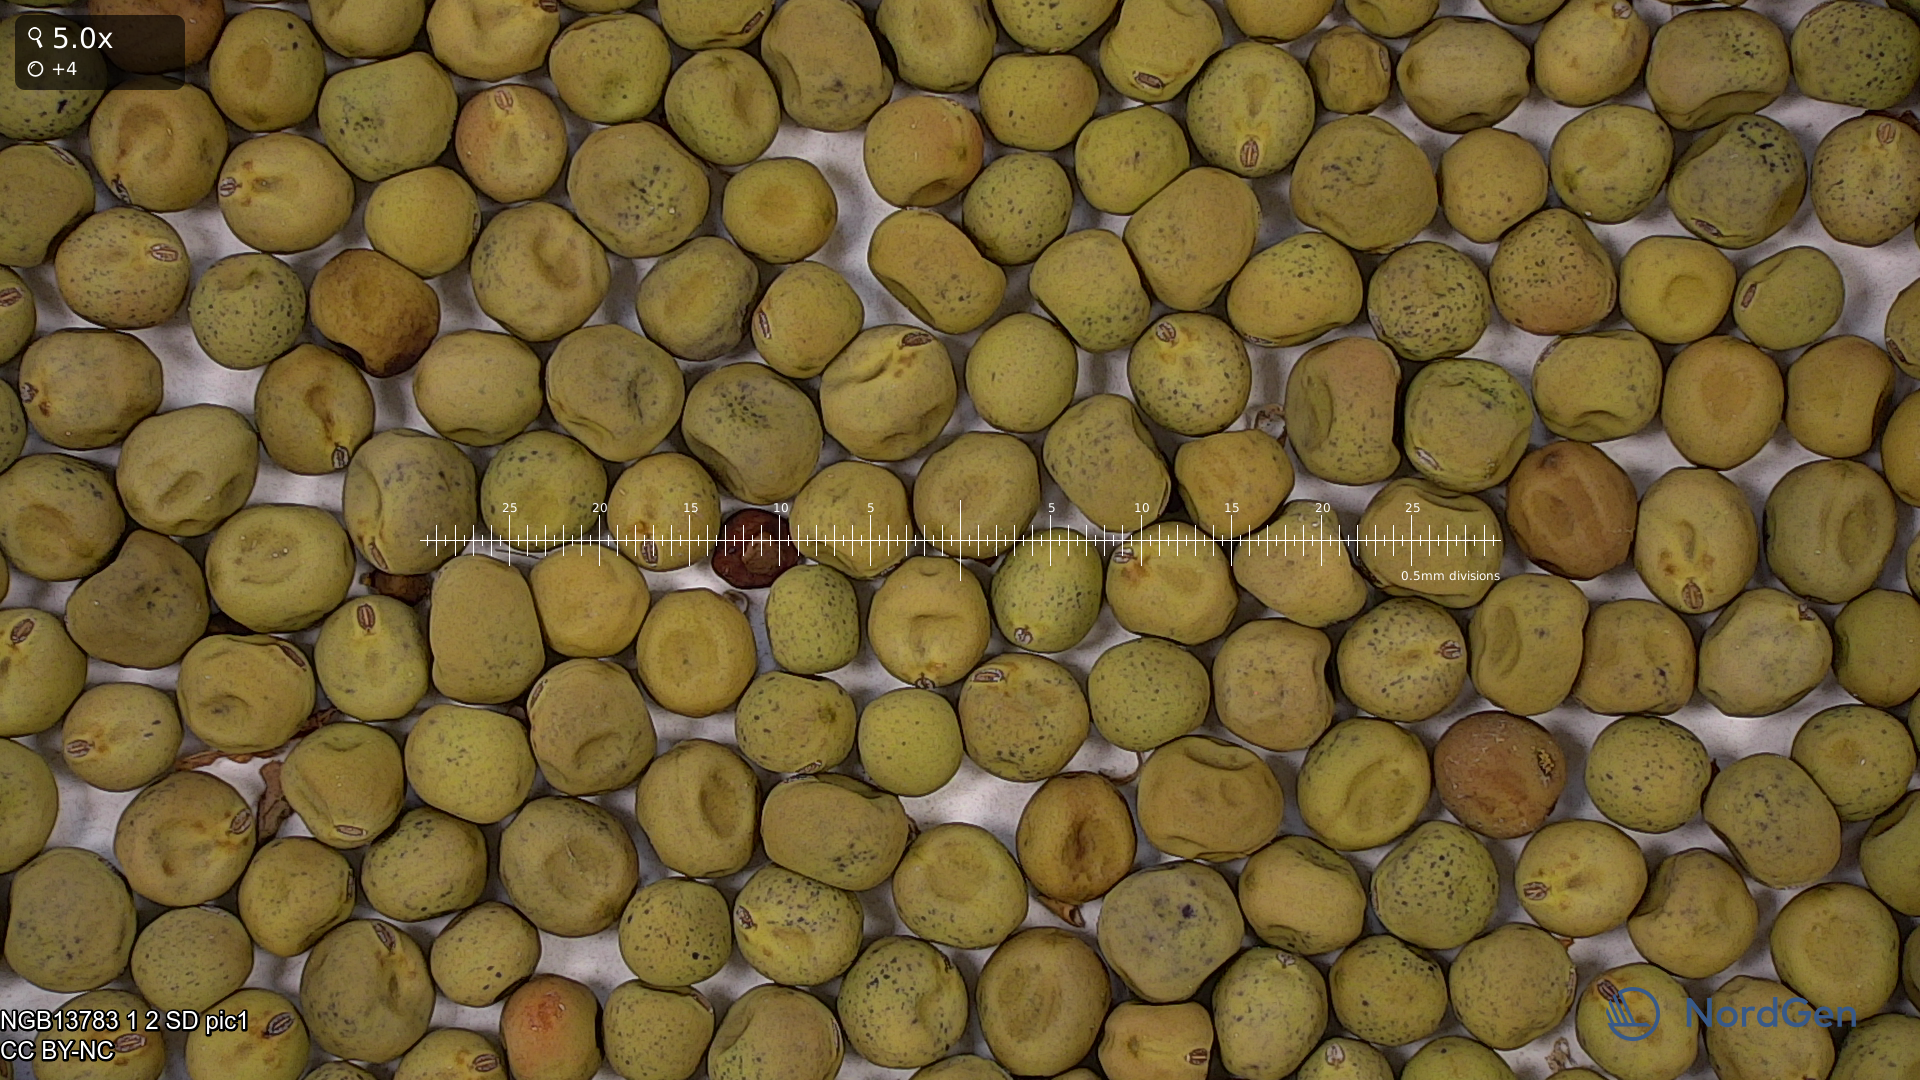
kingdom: Plantae
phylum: Tracheophyta
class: Magnoliopsida
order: Fabales
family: Fabaceae
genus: Lathyrus
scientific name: Lathyrus oleraceus
